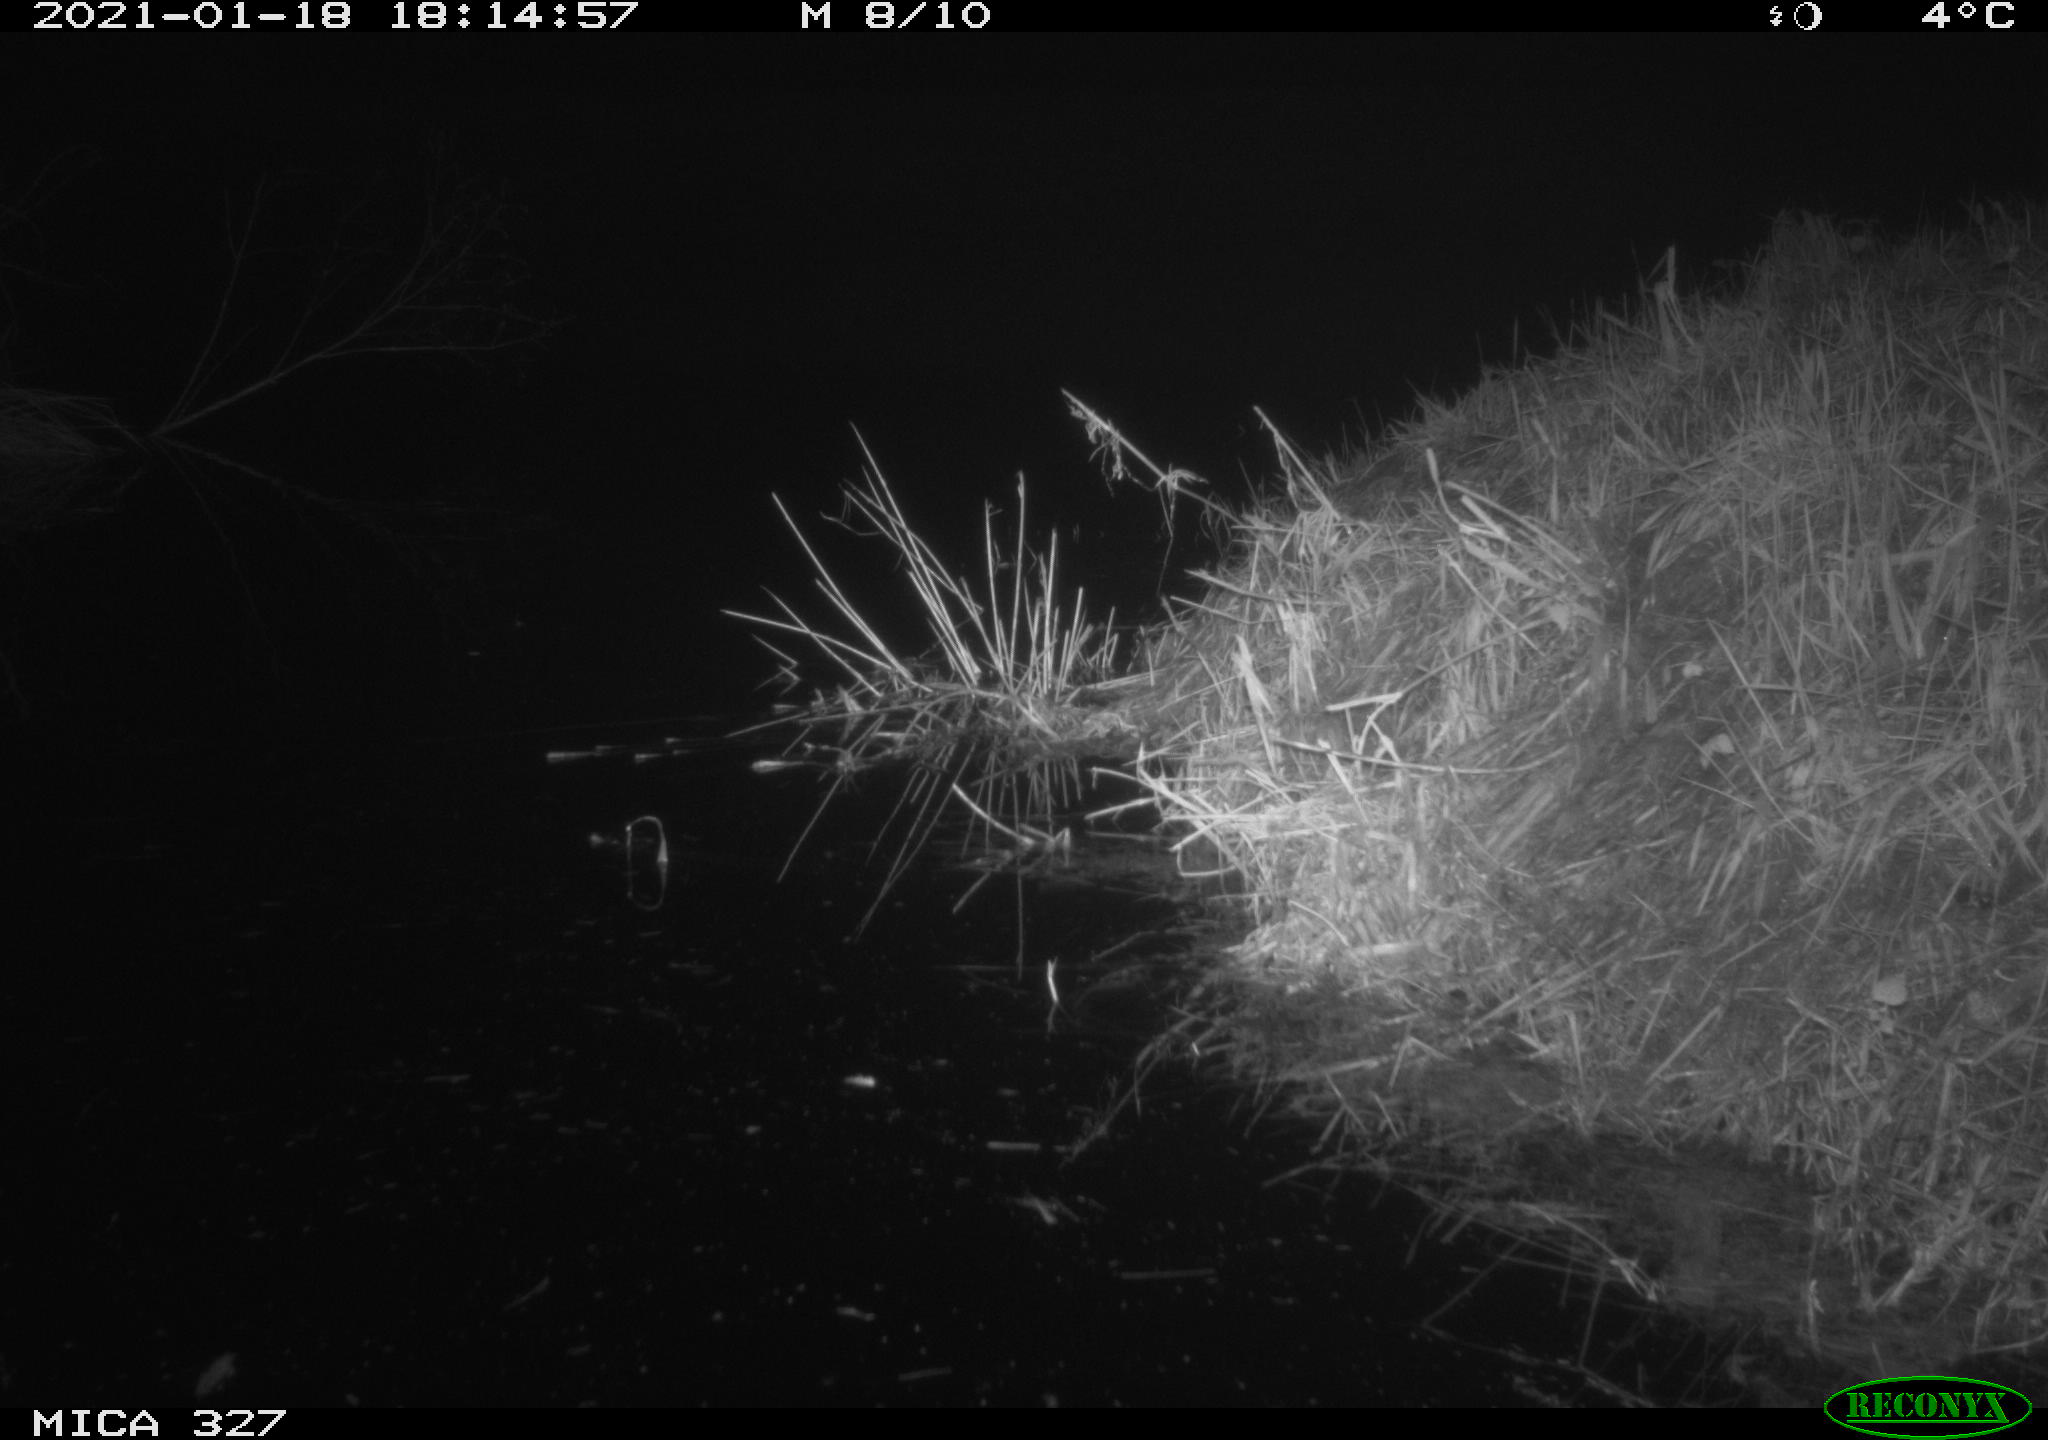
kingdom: Animalia
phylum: Chordata
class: Mammalia
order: Rodentia
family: Muridae
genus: Rattus
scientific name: Rattus norvegicus
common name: Brown rat
